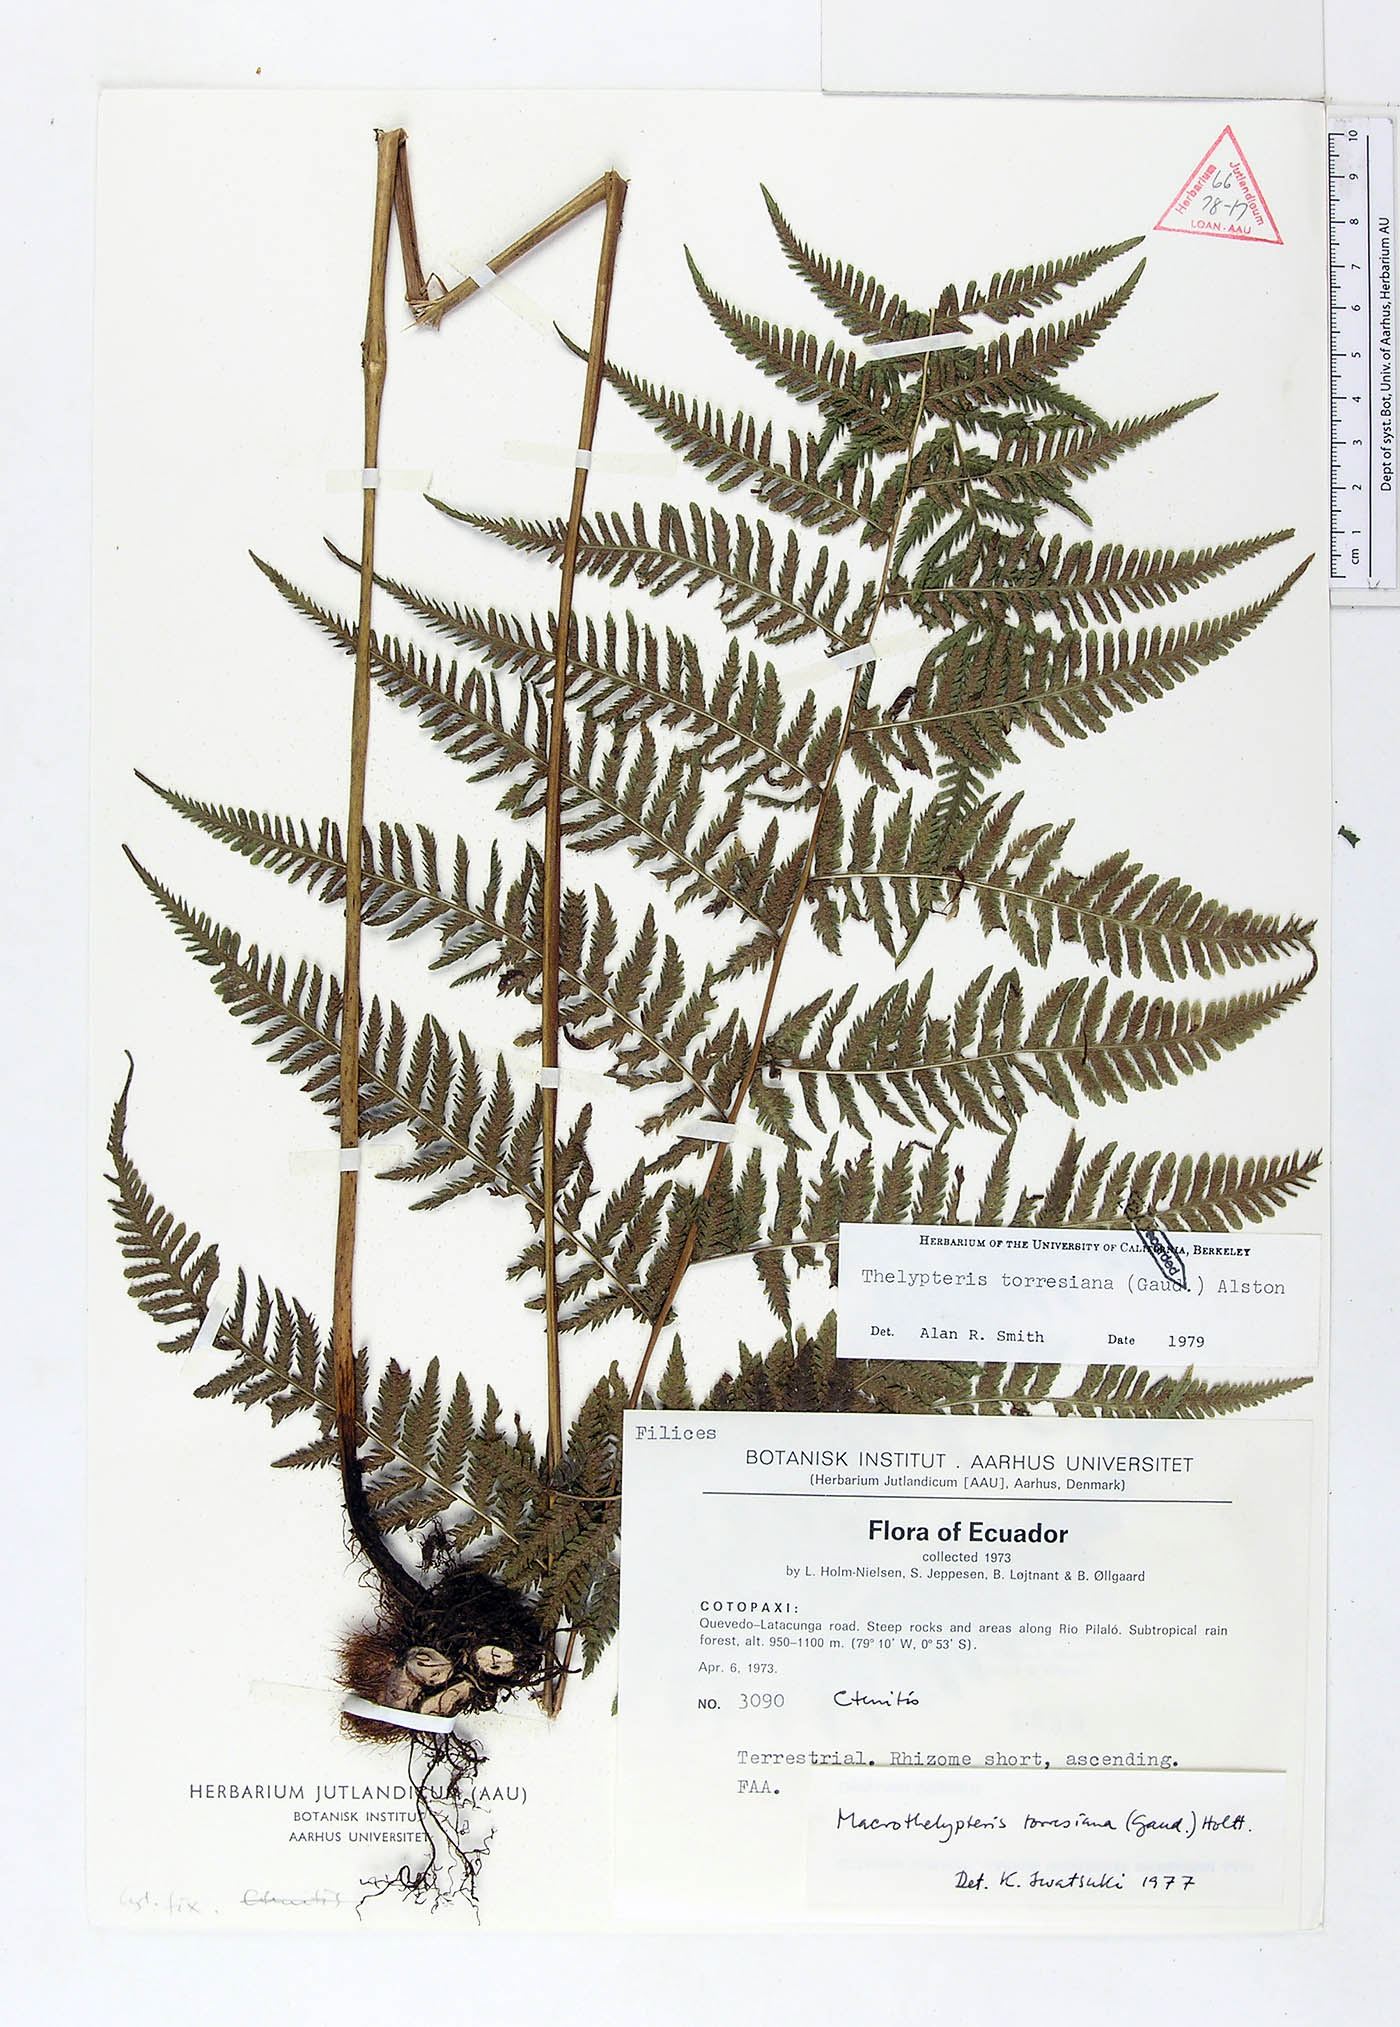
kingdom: Plantae
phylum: Tracheophyta
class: Polypodiopsida
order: Polypodiales
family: Thelypteridaceae
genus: Macrothelypteris
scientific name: Macrothelypteris torresiana
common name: Swordfern
